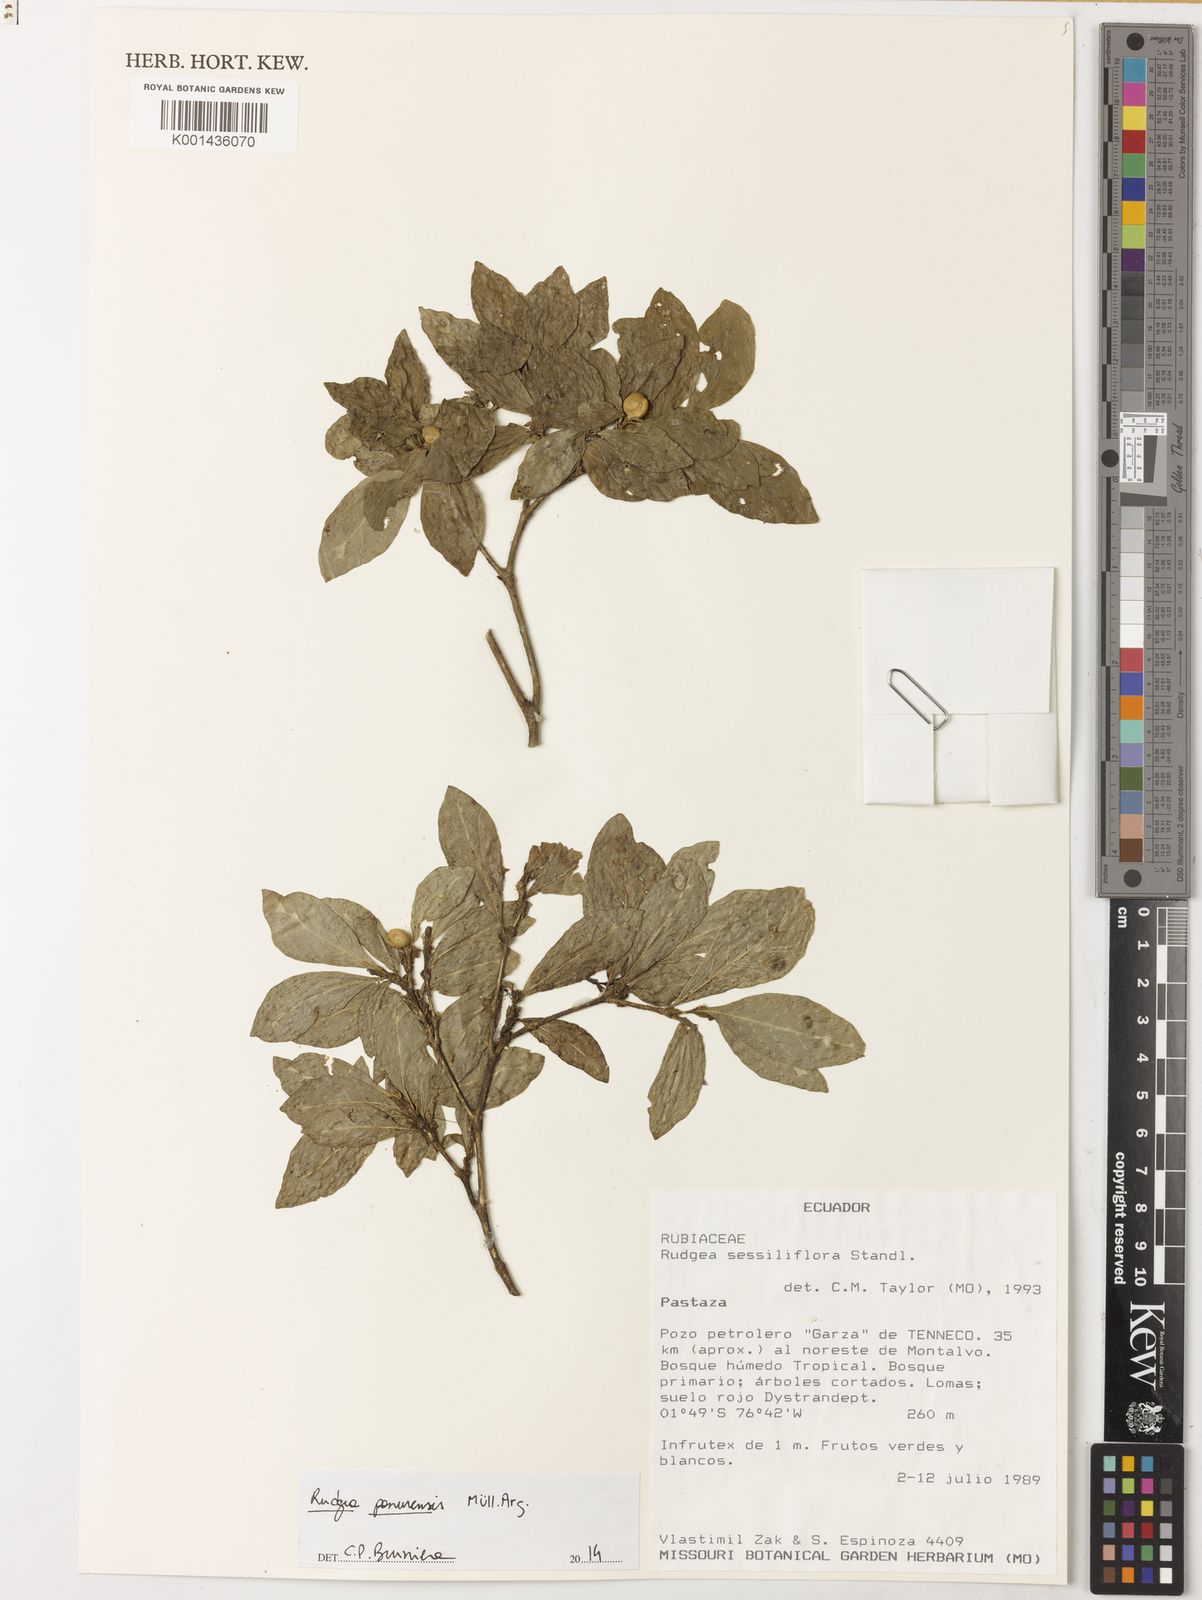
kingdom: Plantae
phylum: Tracheophyta
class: Magnoliopsida
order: Gentianales
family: Rubiaceae
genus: Rudgea
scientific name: Rudgea
